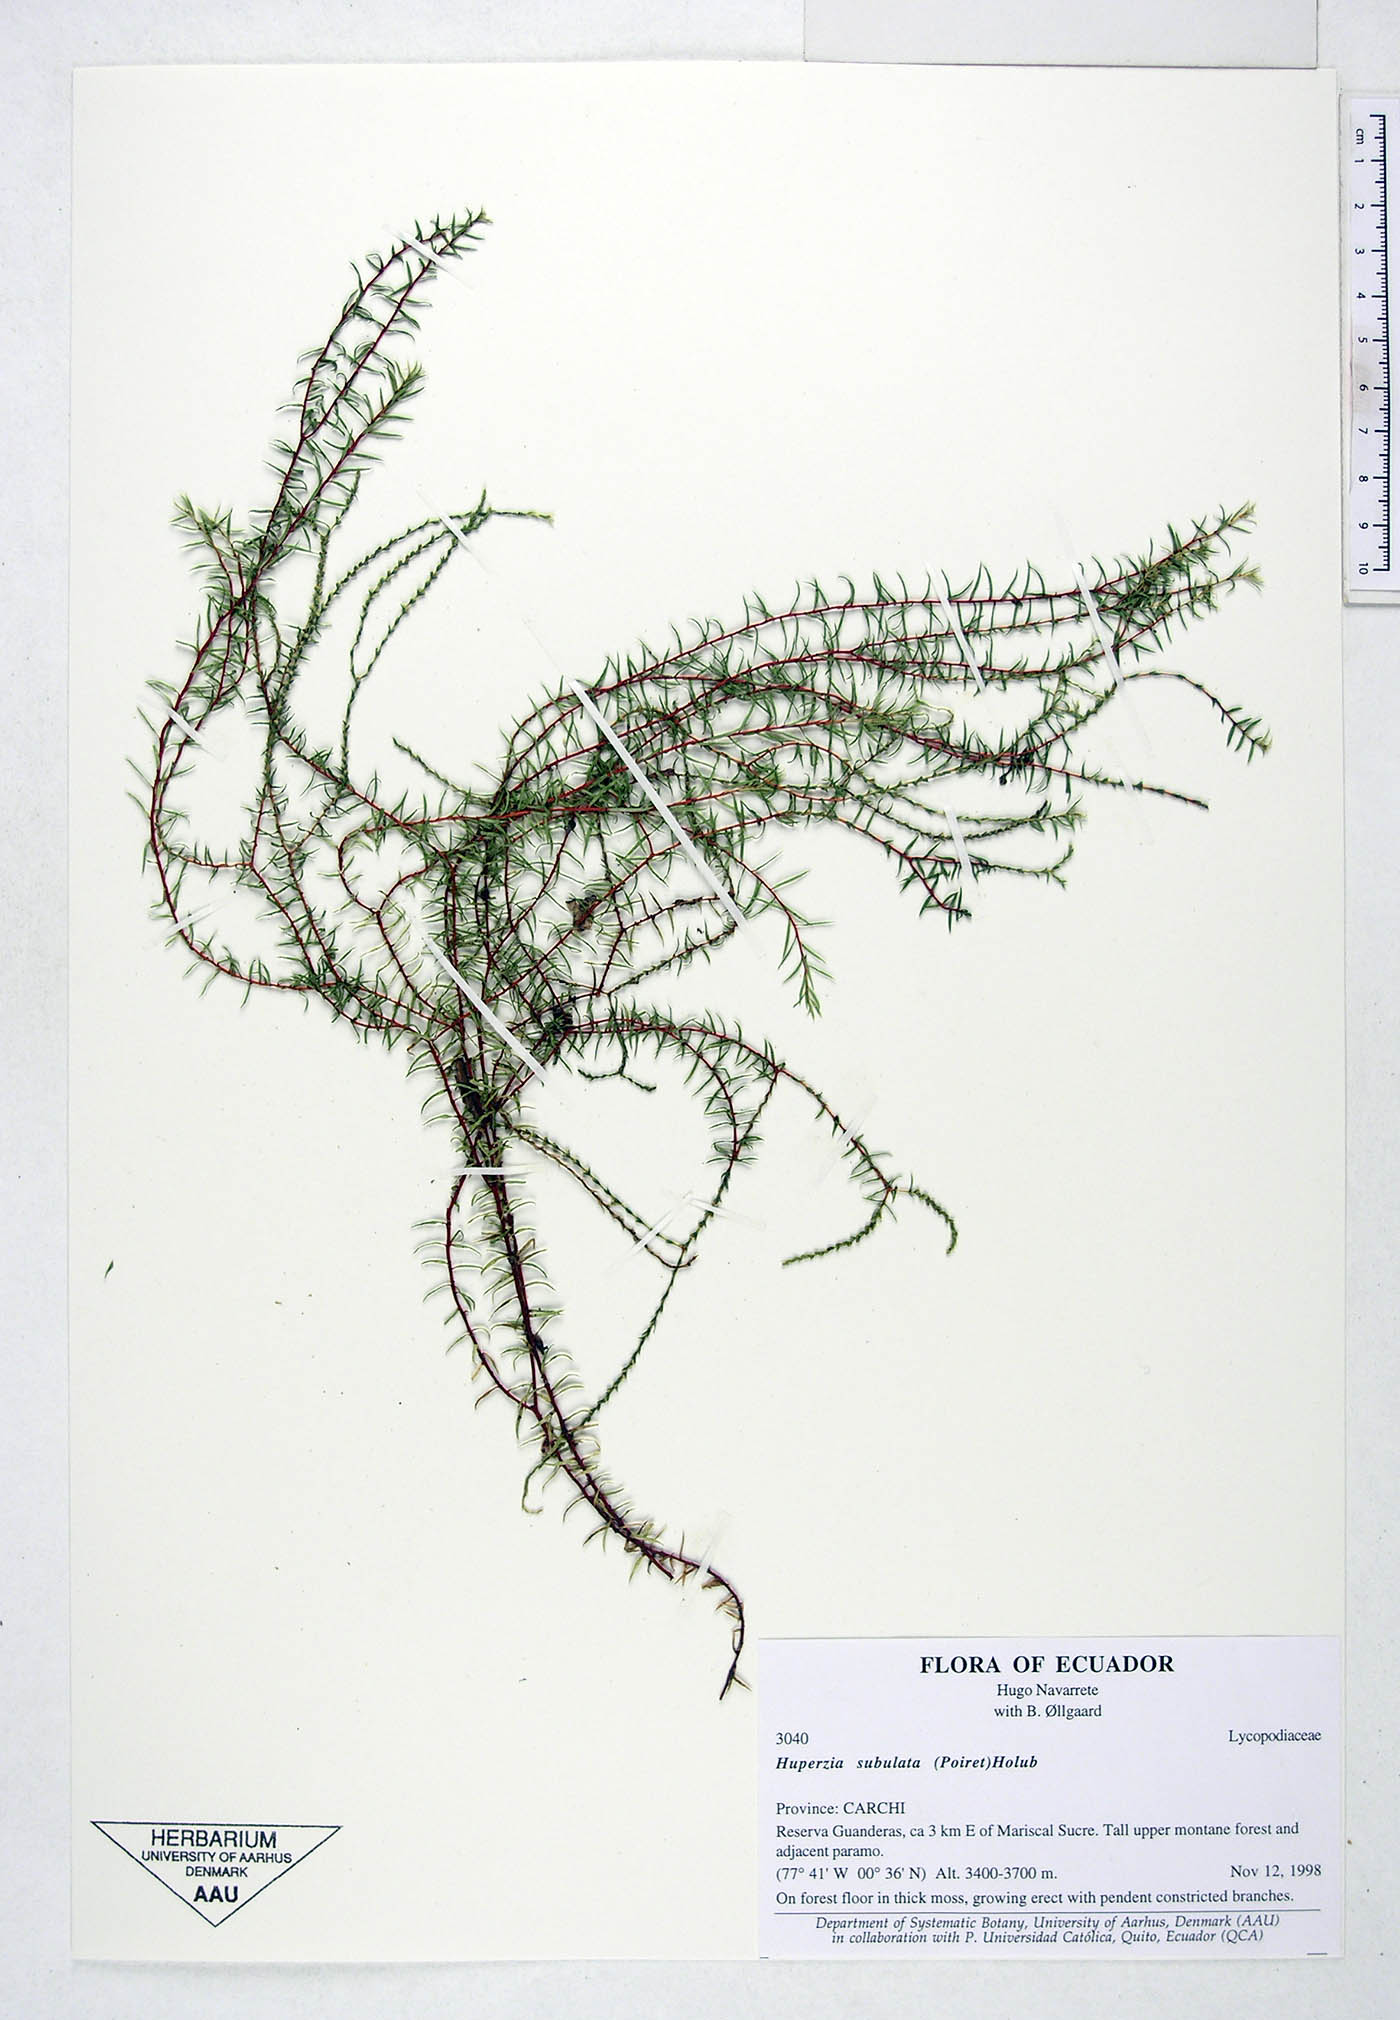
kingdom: Plantae
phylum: Tracheophyta
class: Lycopodiopsida
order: Lycopodiales
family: Lycopodiaceae
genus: Phlegmariurus
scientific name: Phlegmariurus subulatus
